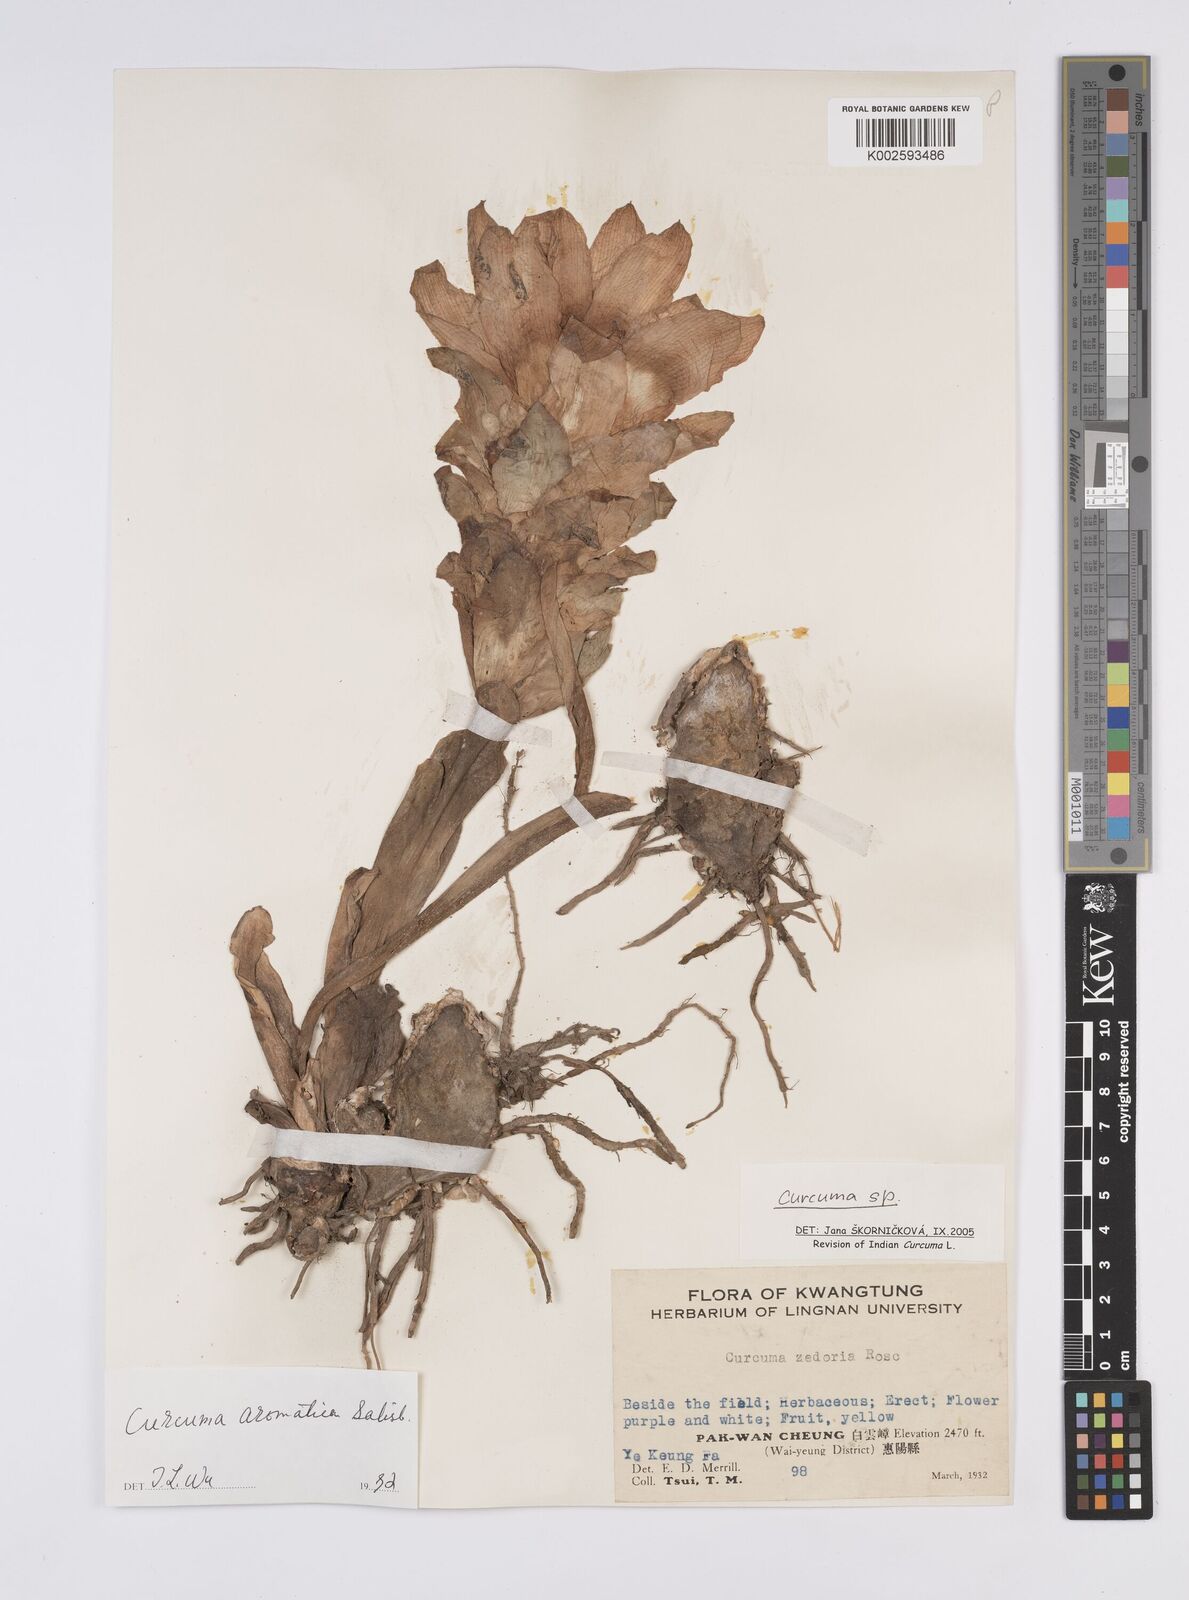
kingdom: Plantae
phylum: Tracheophyta
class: Liliopsida
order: Zingiberales
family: Zingiberaceae
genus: Curcuma
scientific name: Curcuma
